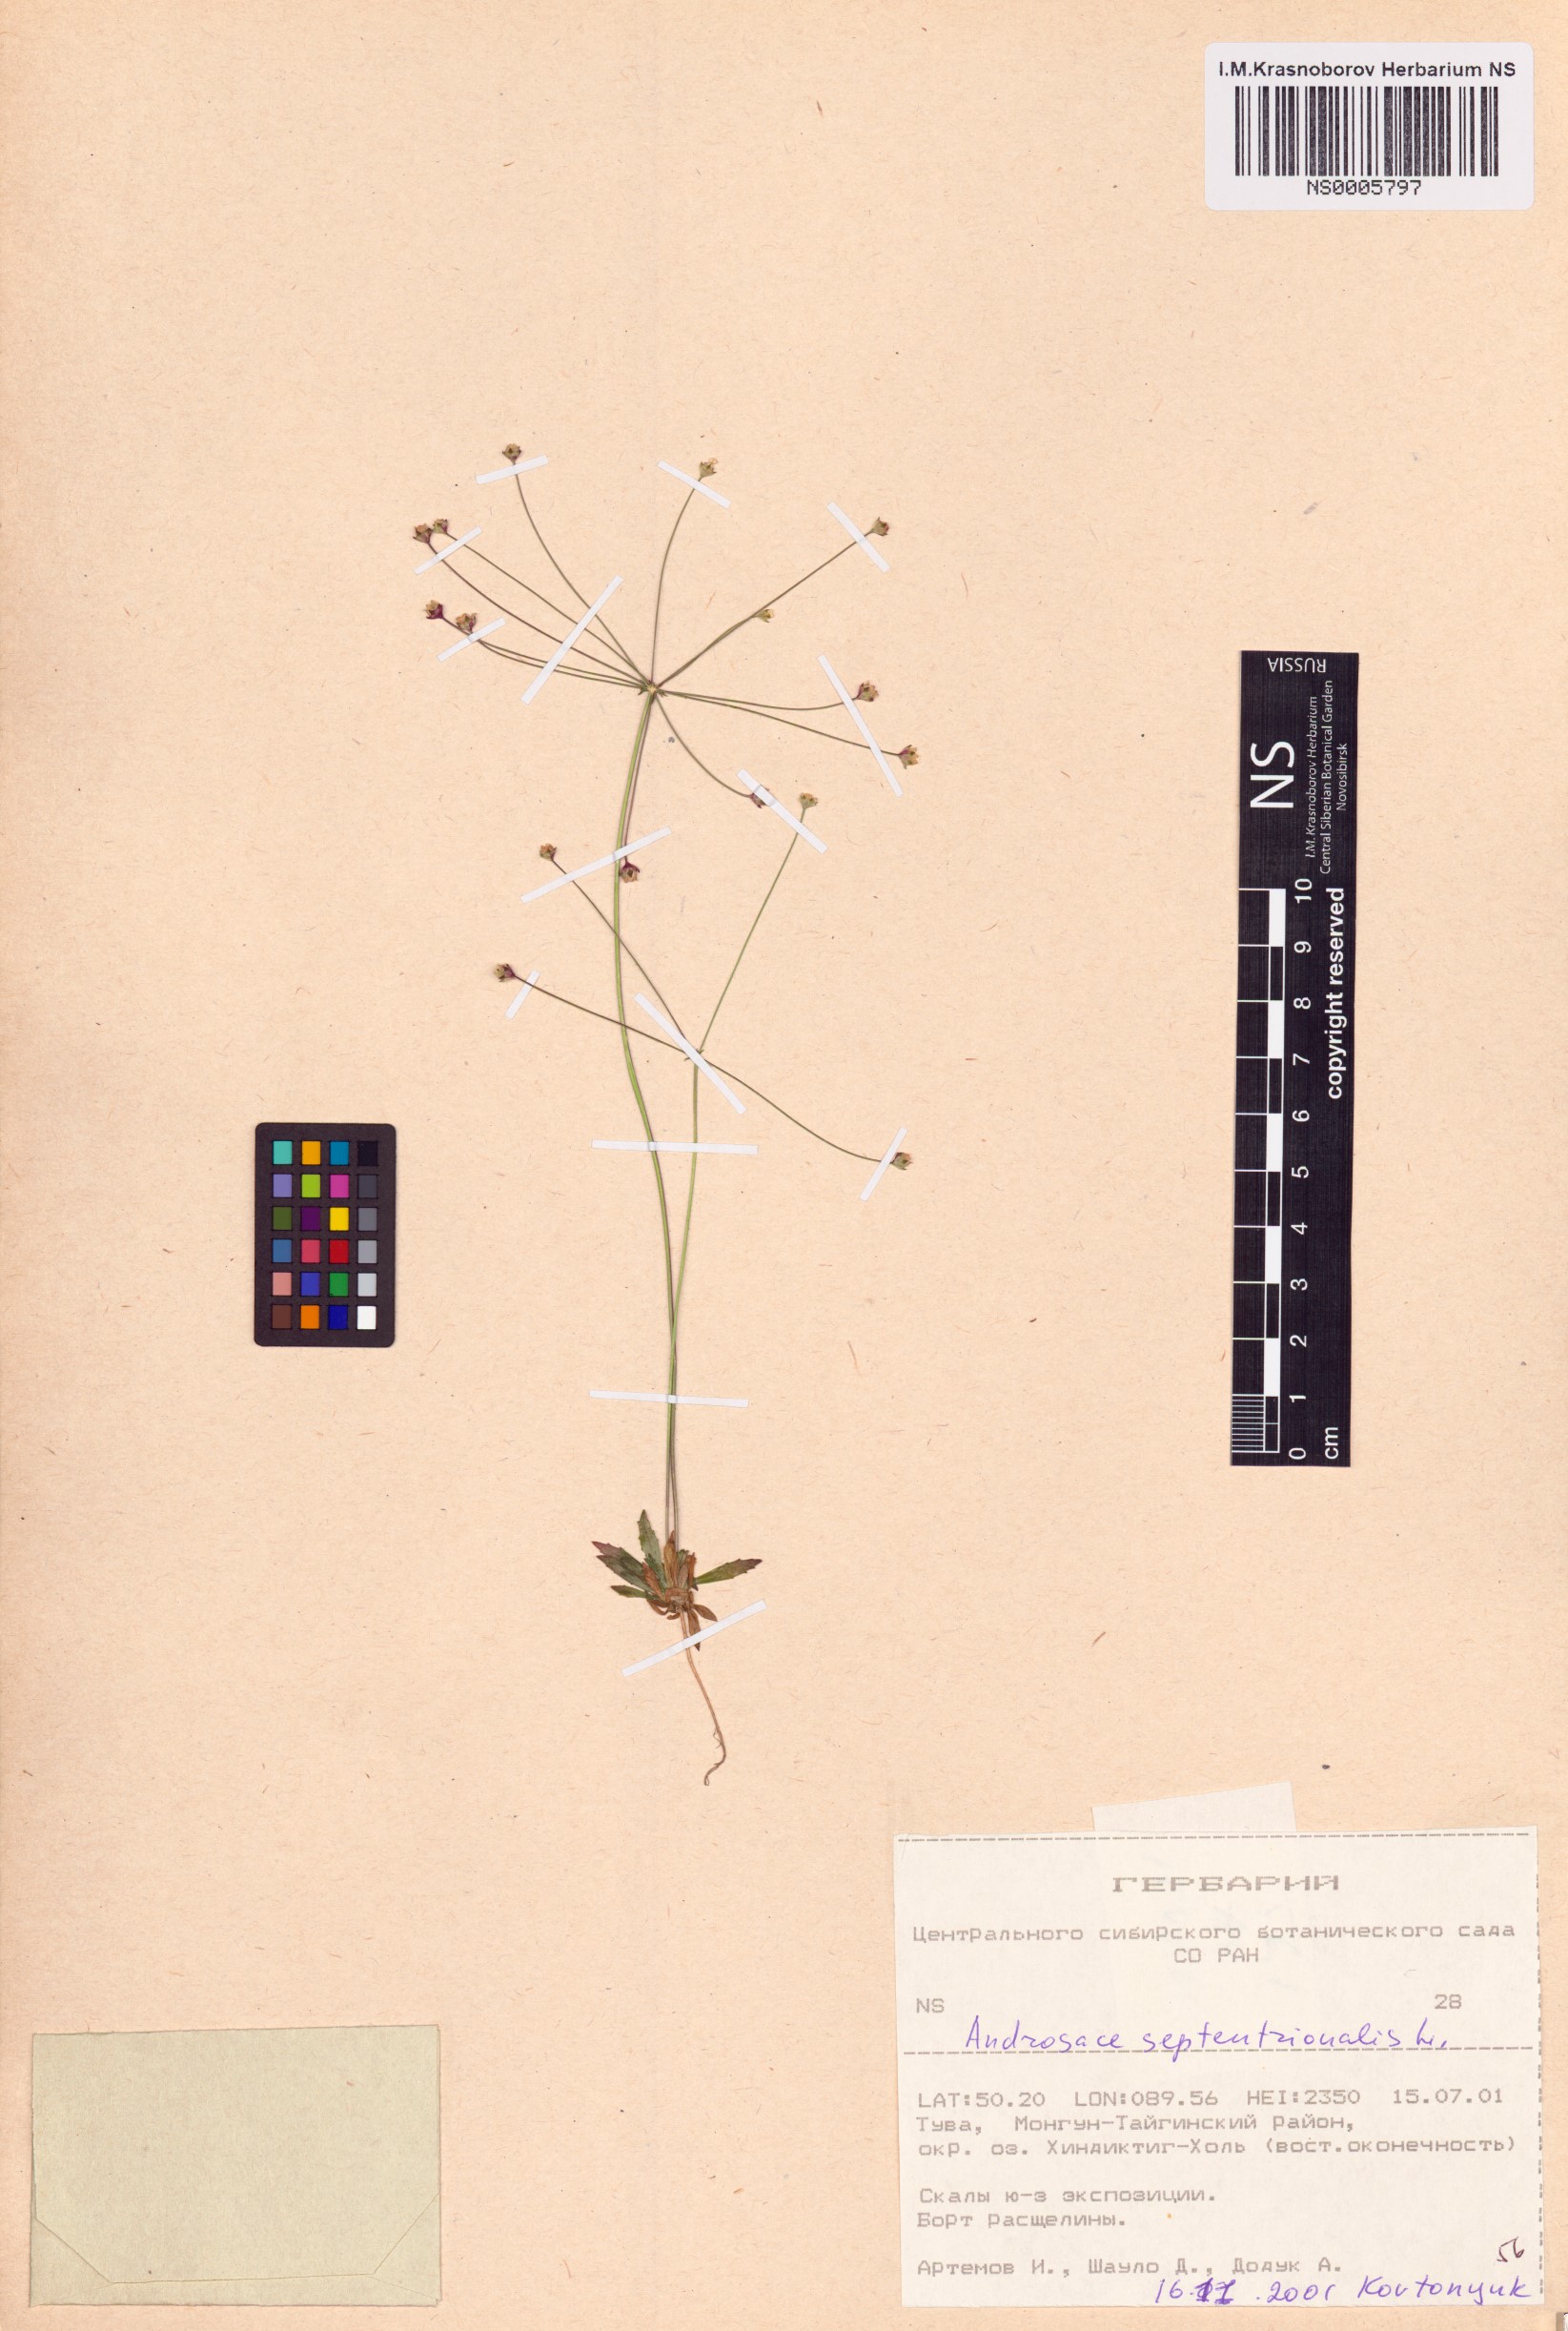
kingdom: Plantae
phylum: Tracheophyta
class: Magnoliopsida
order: Ericales
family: Primulaceae
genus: Androsace
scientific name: Androsace septentrionalis
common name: Hairy northern fairy-candelabra
